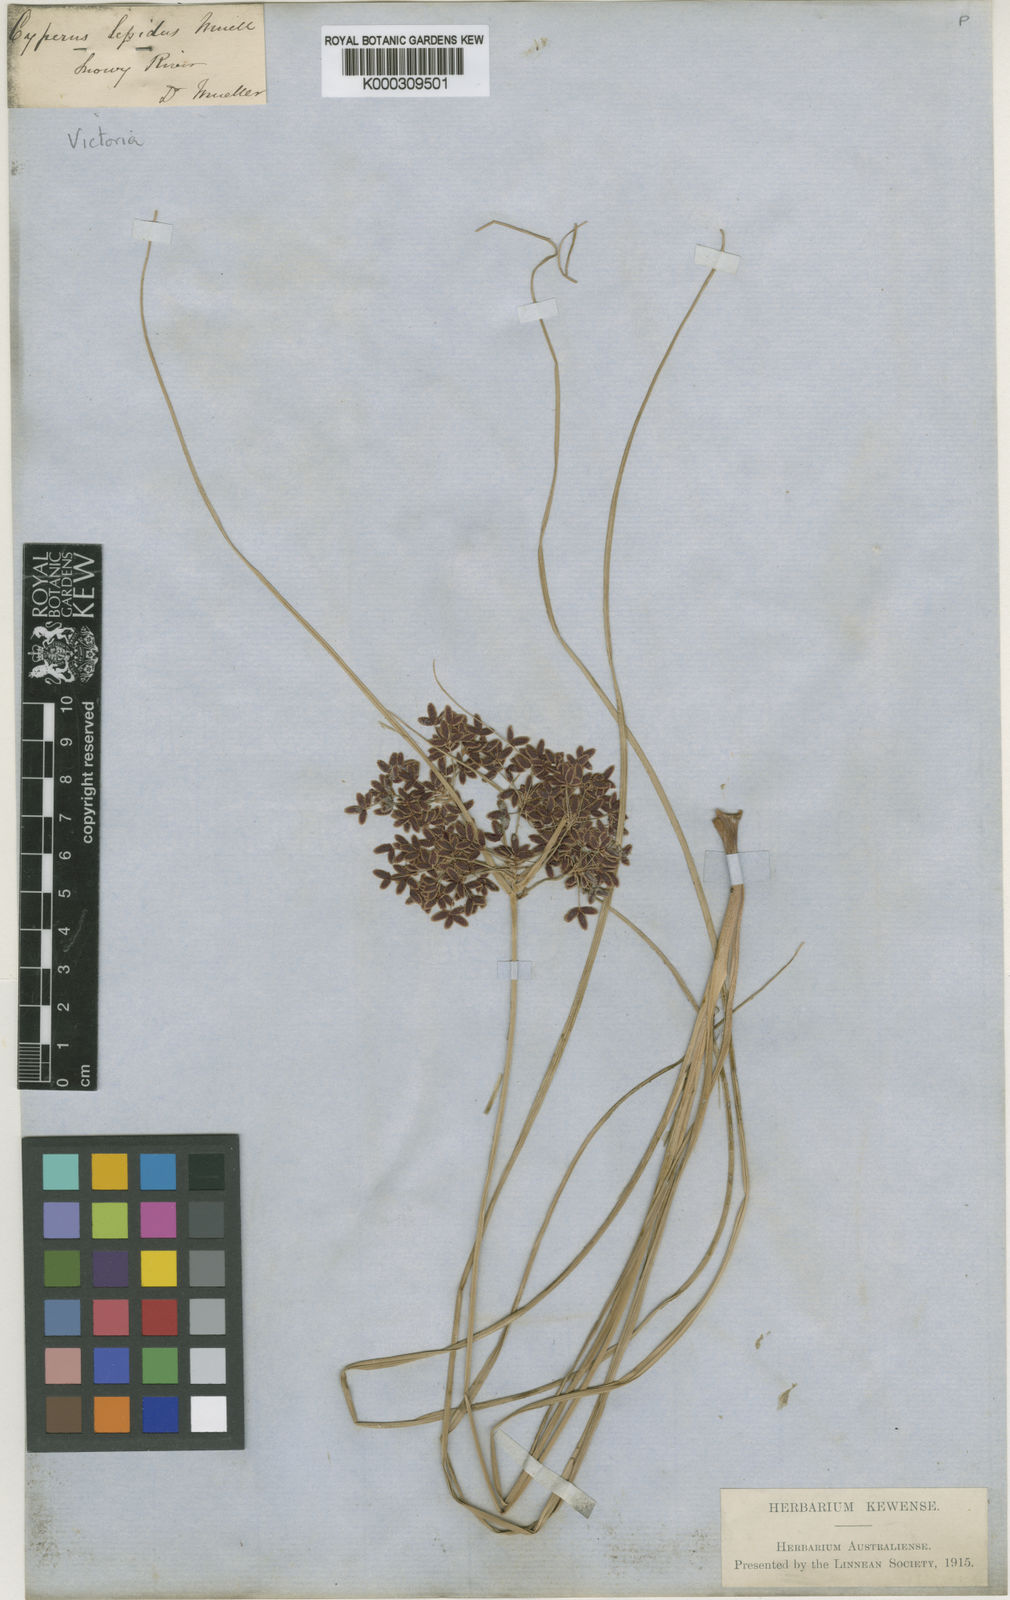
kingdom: Plantae
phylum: Tracheophyta
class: Liliopsida
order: Poales
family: Cyperaceae
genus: Cyperus
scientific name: Cyperus concinnus
